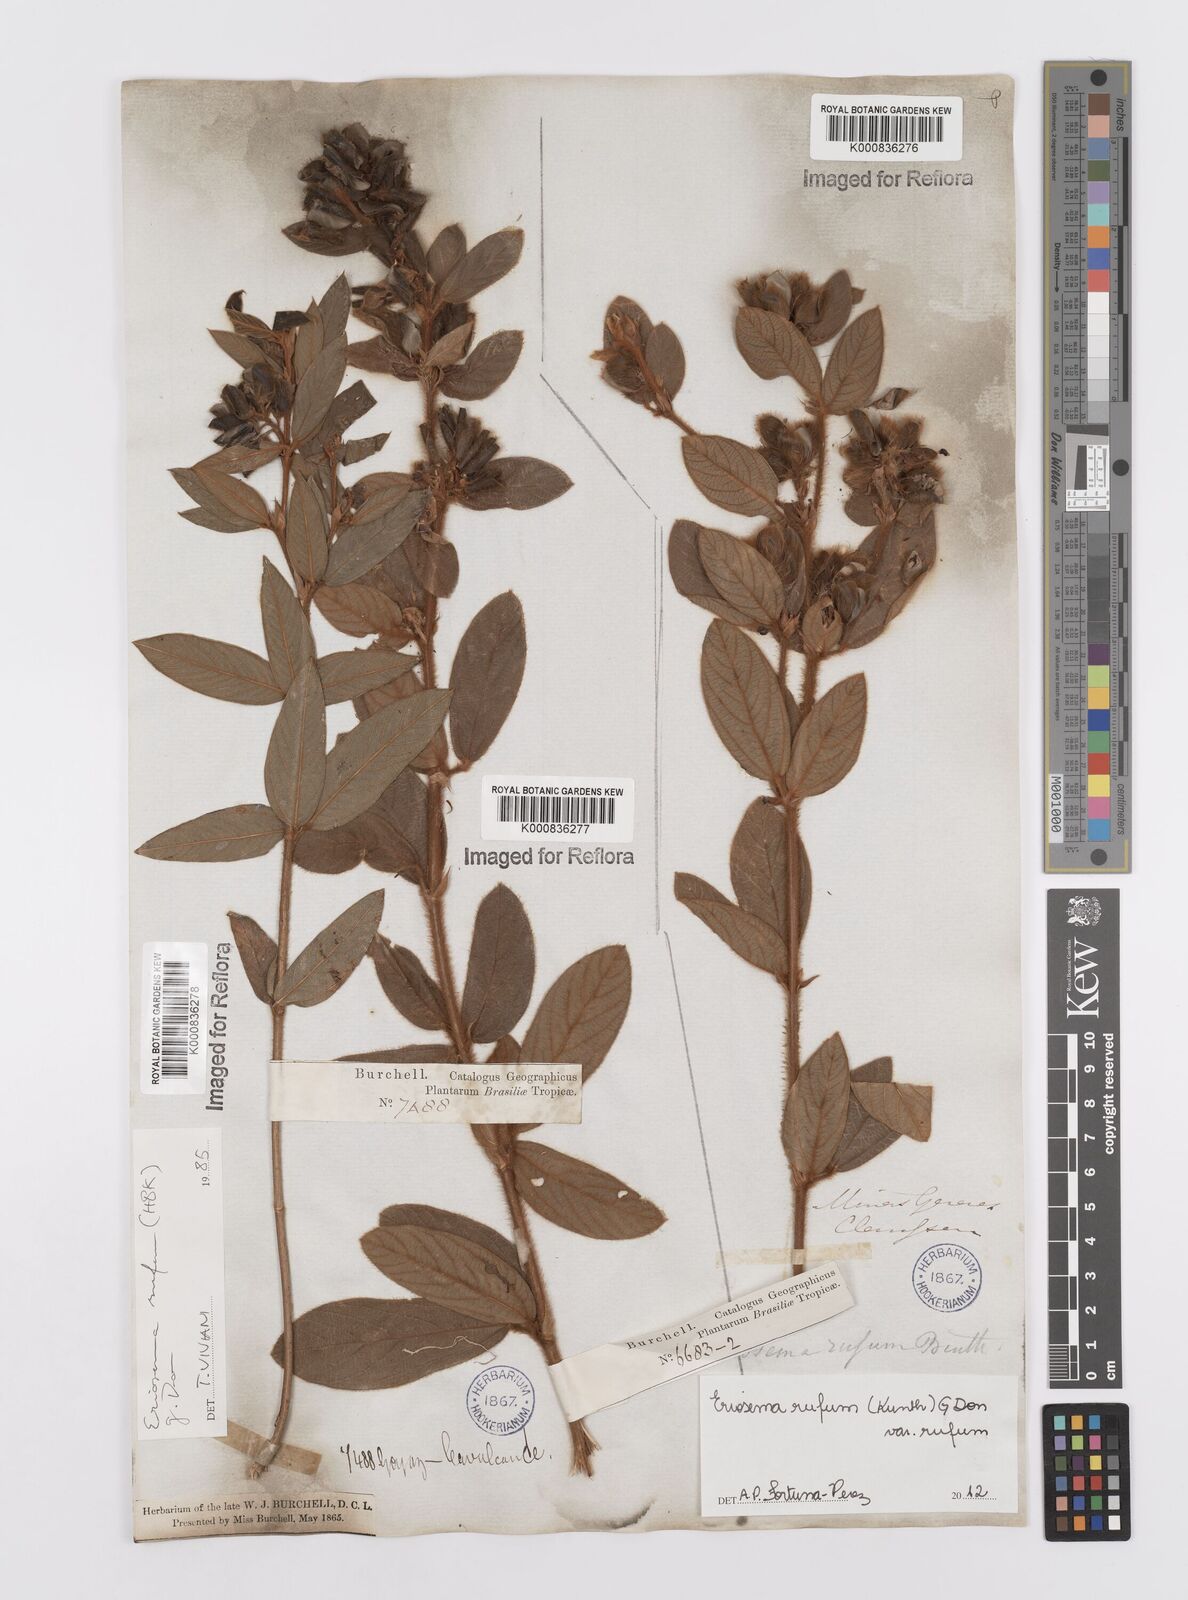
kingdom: Plantae
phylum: Tracheophyta
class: Magnoliopsida
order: Fabales
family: Fabaceae
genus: Eriosema
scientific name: Eriosema rufum
